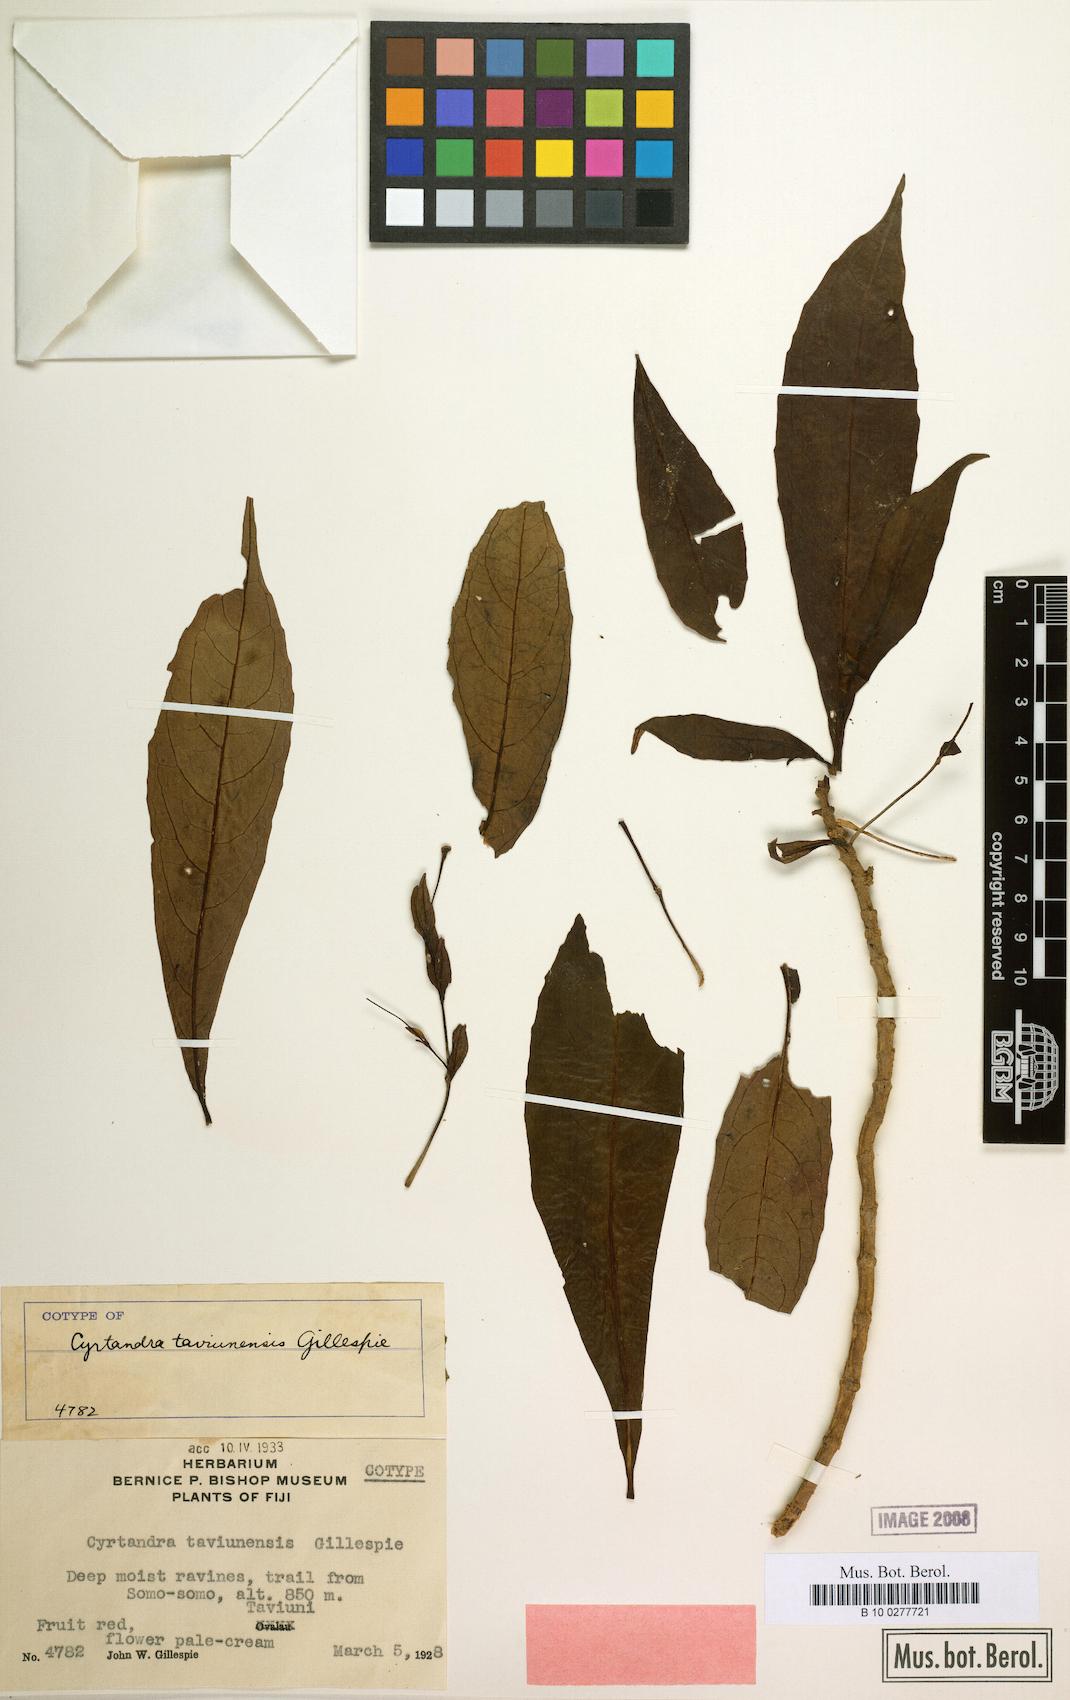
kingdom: Plantae
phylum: Tracheophyta
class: Magnoliopsida
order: Lamiales
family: Gesneriaceae
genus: Cyrtandra
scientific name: Cyrtandra taviunensis
